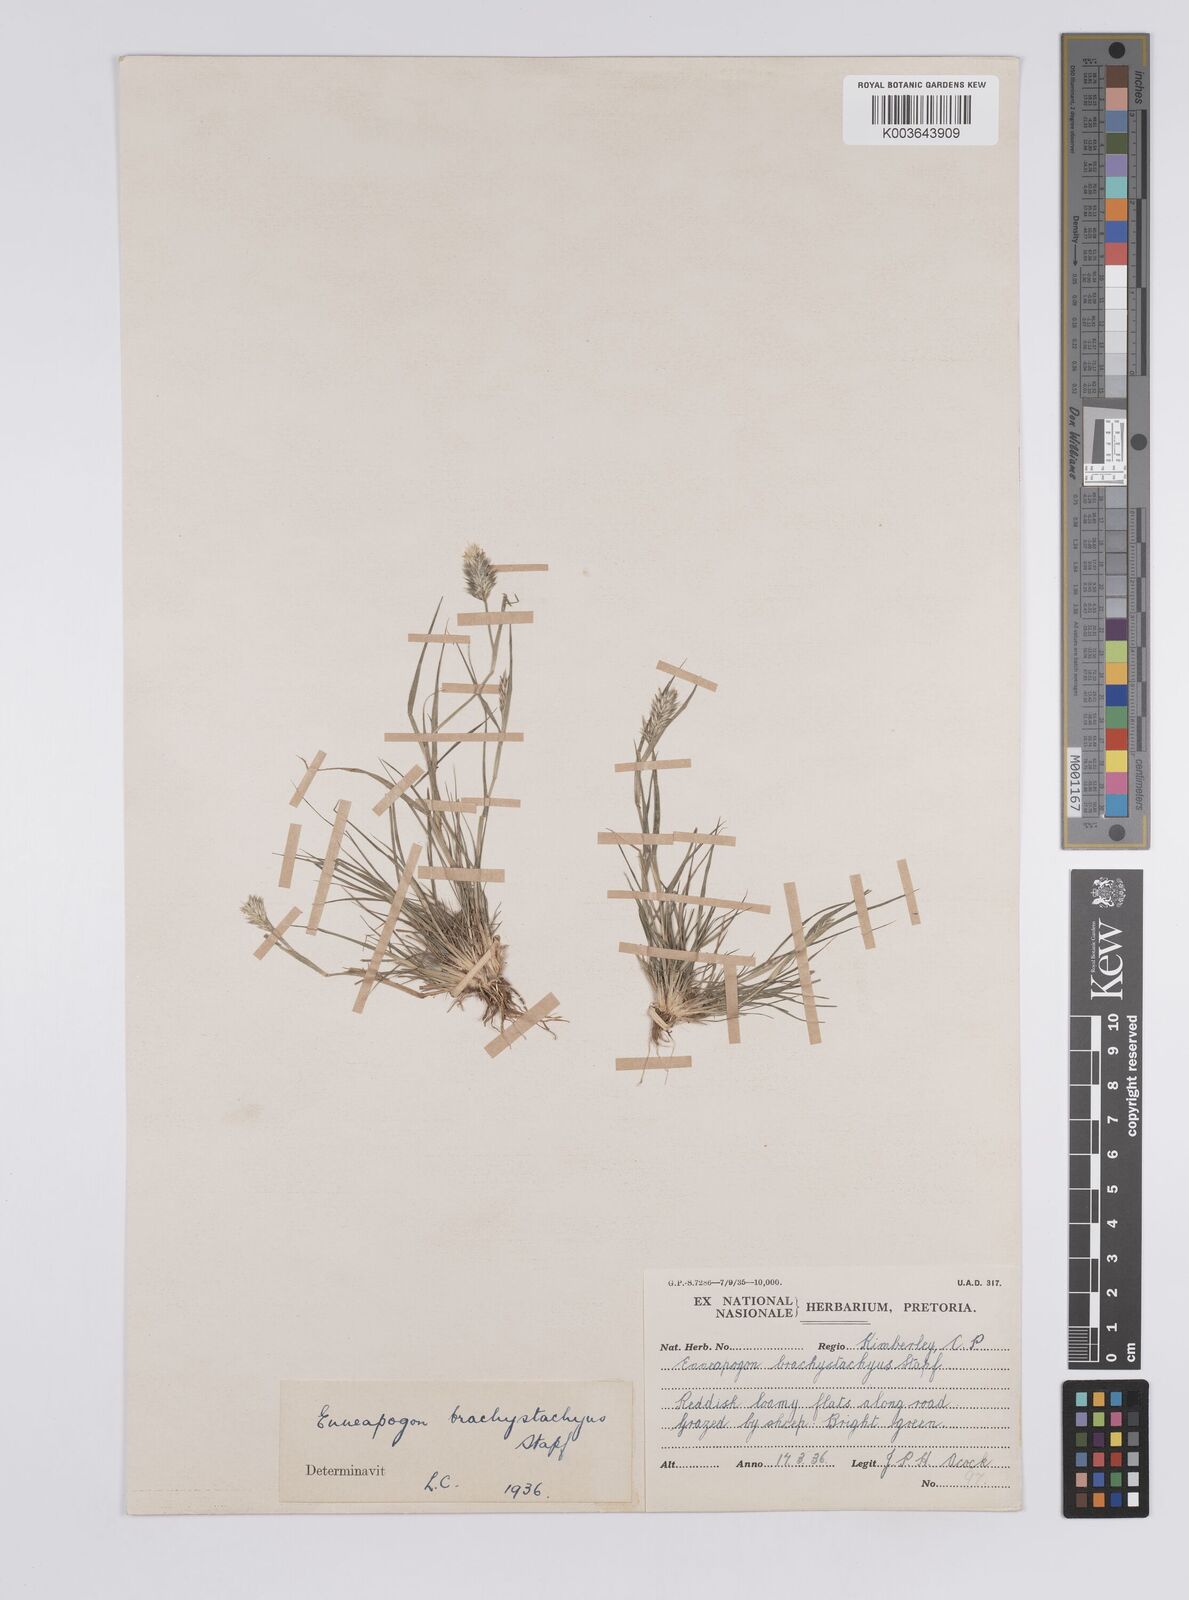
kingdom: Plantae
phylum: Tracheophyta
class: Liliopsida
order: Poales
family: Poaceae
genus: Enneapogon
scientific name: Enneapogon desvauxii
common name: Feather pappus grass
